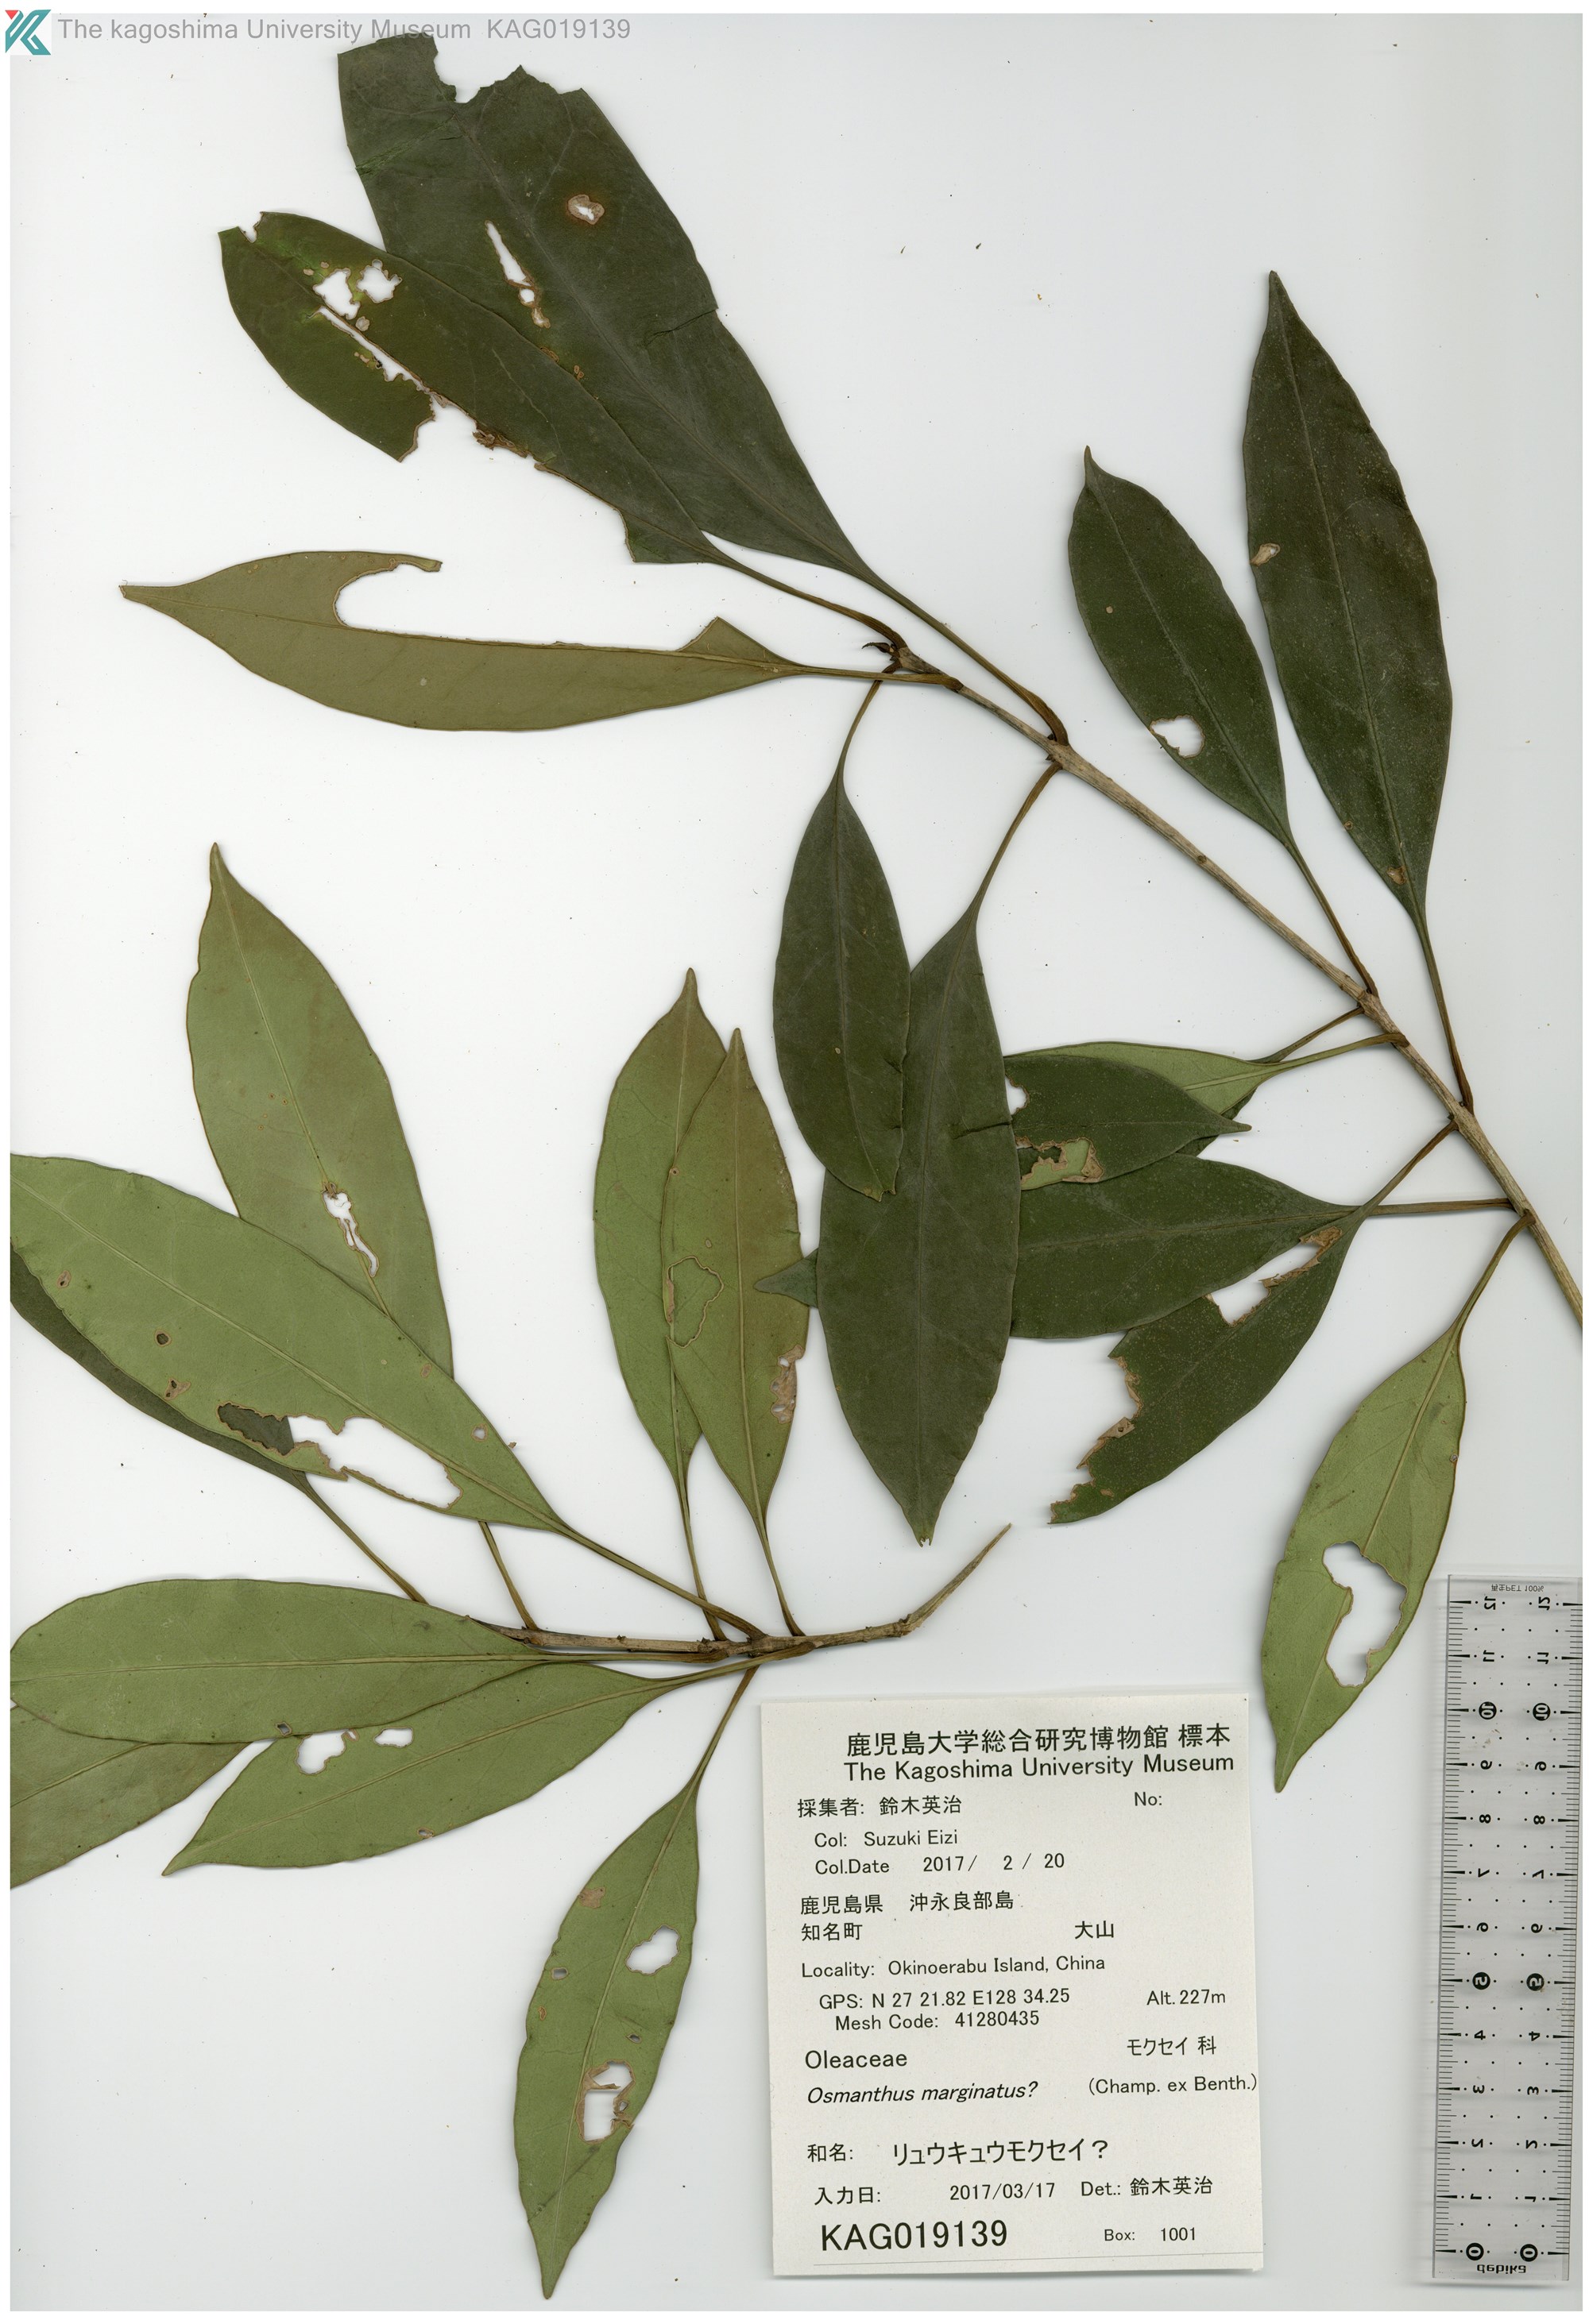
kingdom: Plantae
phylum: Tracheophyta
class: Magnoliopsida
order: Lamiales
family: Oleaceae
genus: Osmanthus
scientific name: Osmanthus insularis
